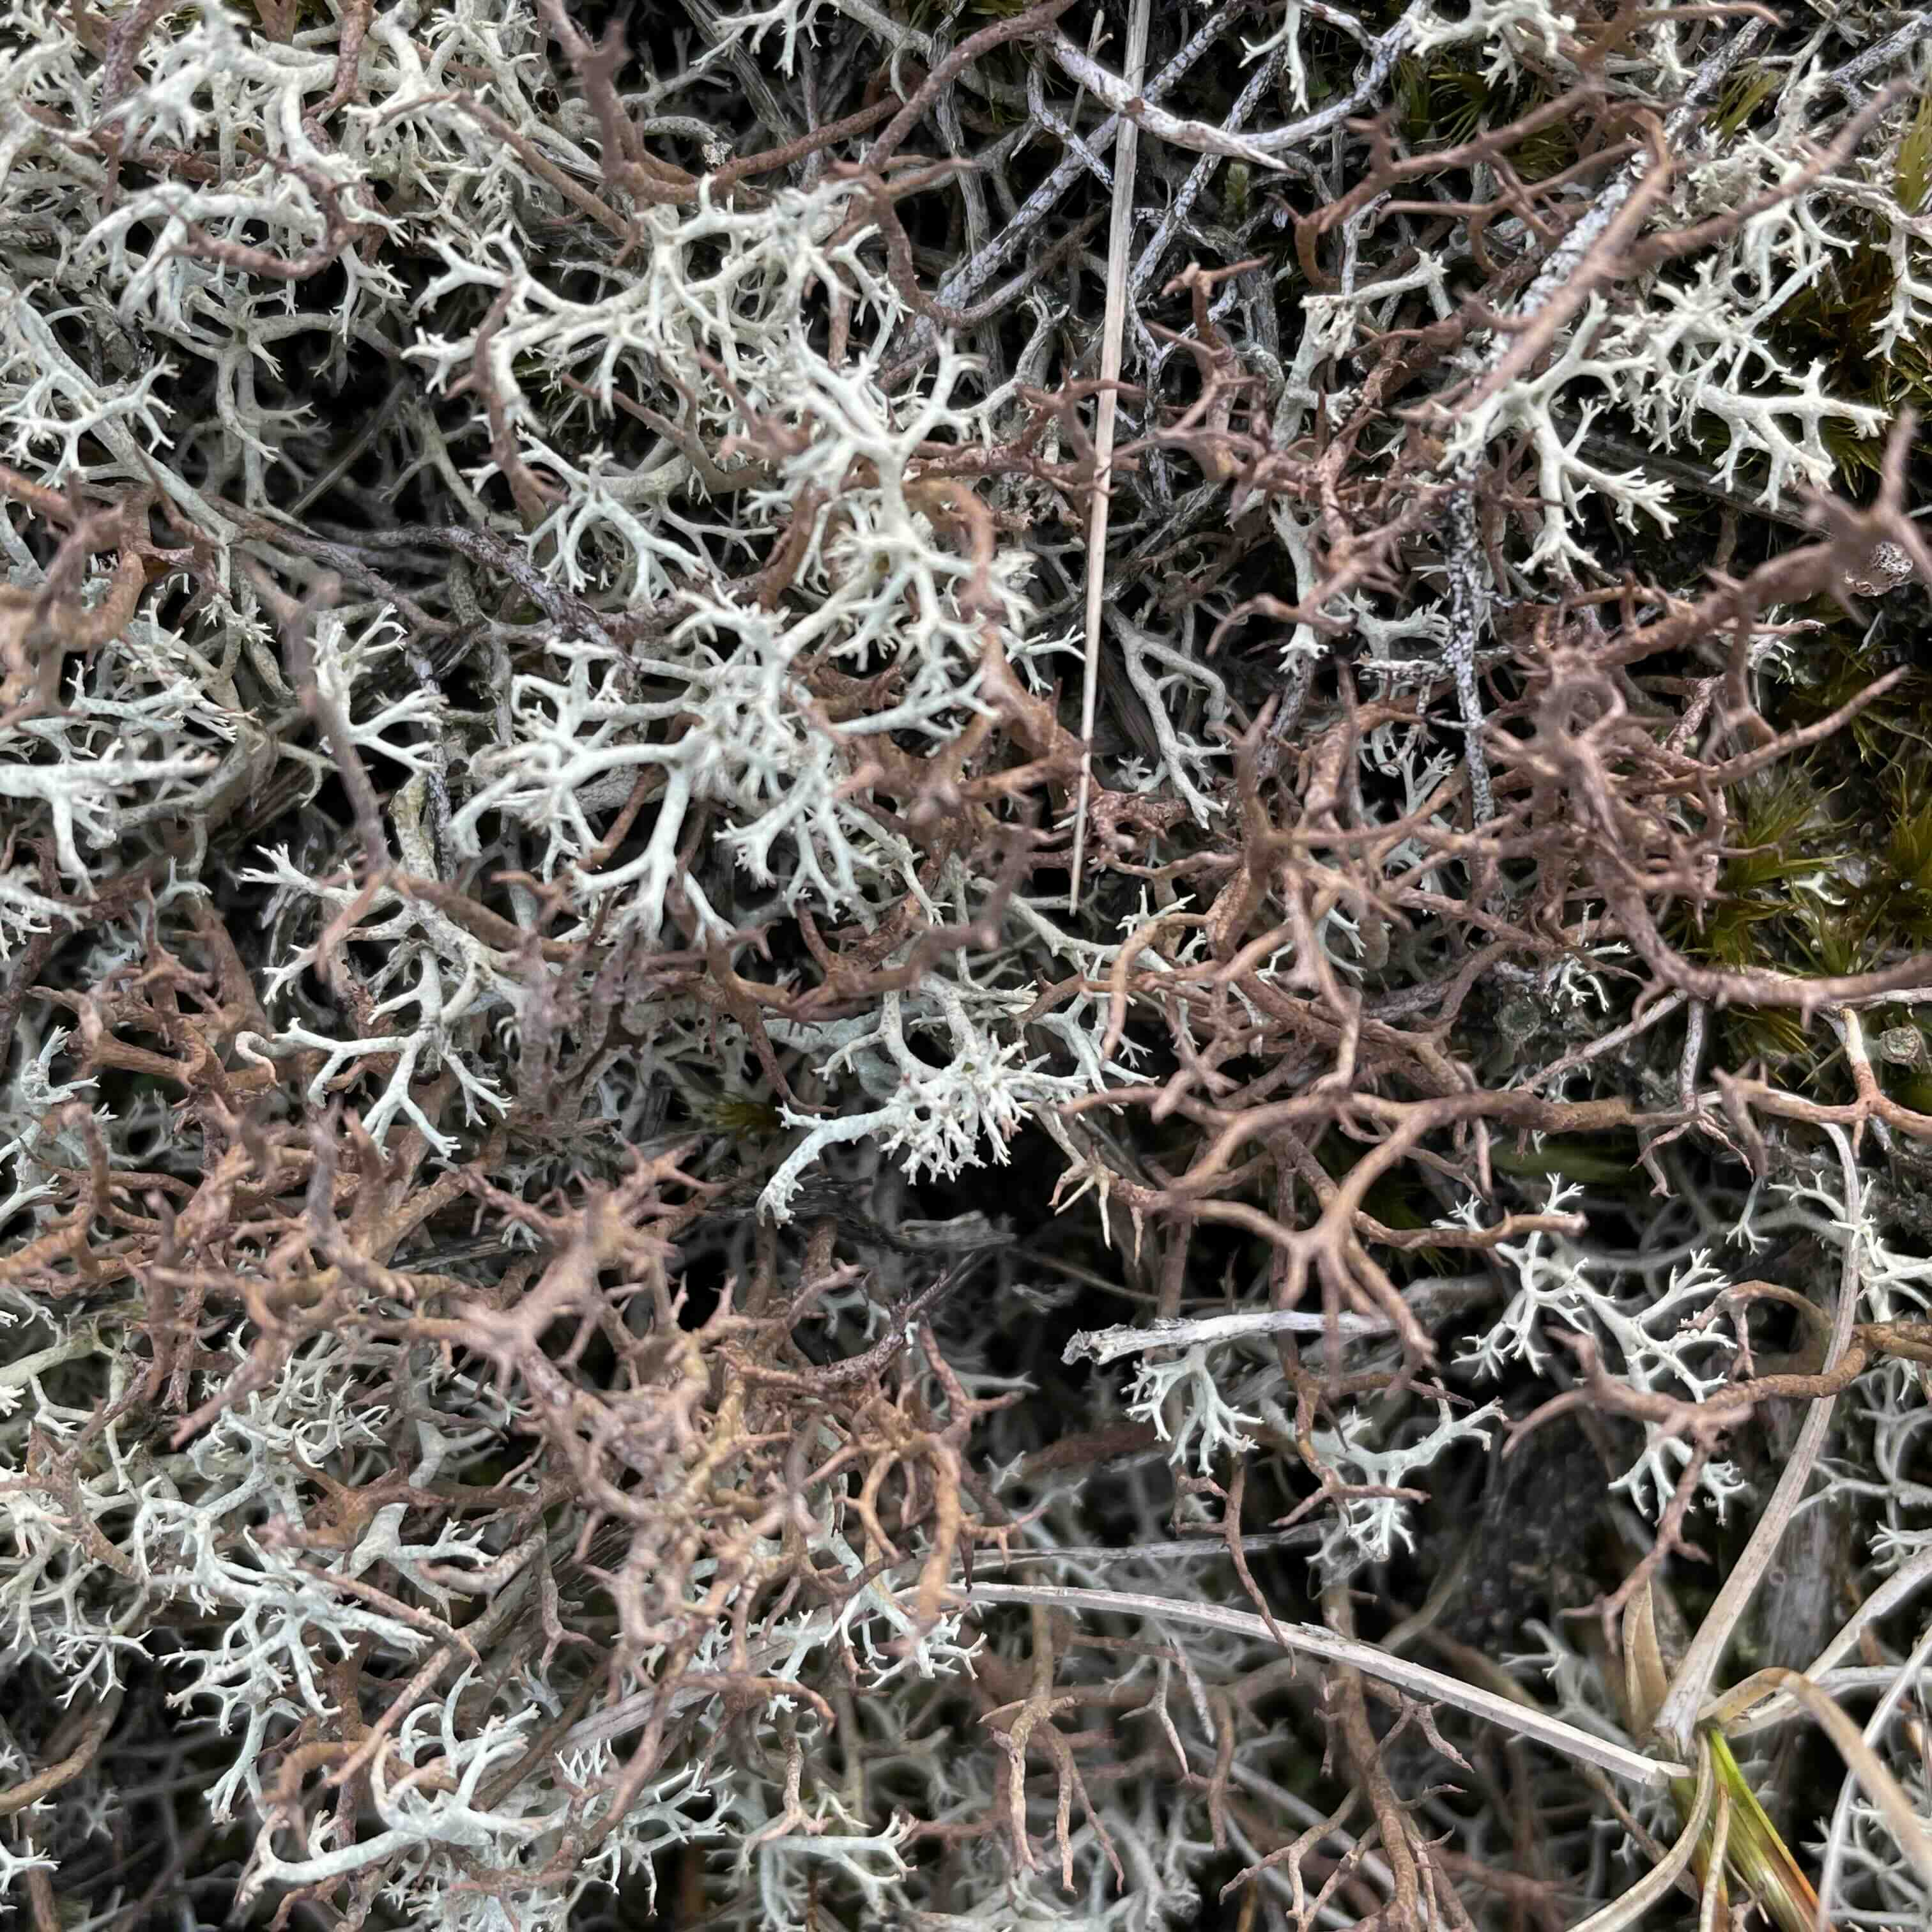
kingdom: Fungi
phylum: Ascomycota
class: Lecanoromycetes
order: Lecanorales
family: Cladoniaceae
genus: Cladonia
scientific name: Cladonia furcata
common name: kløftet bægerlav
